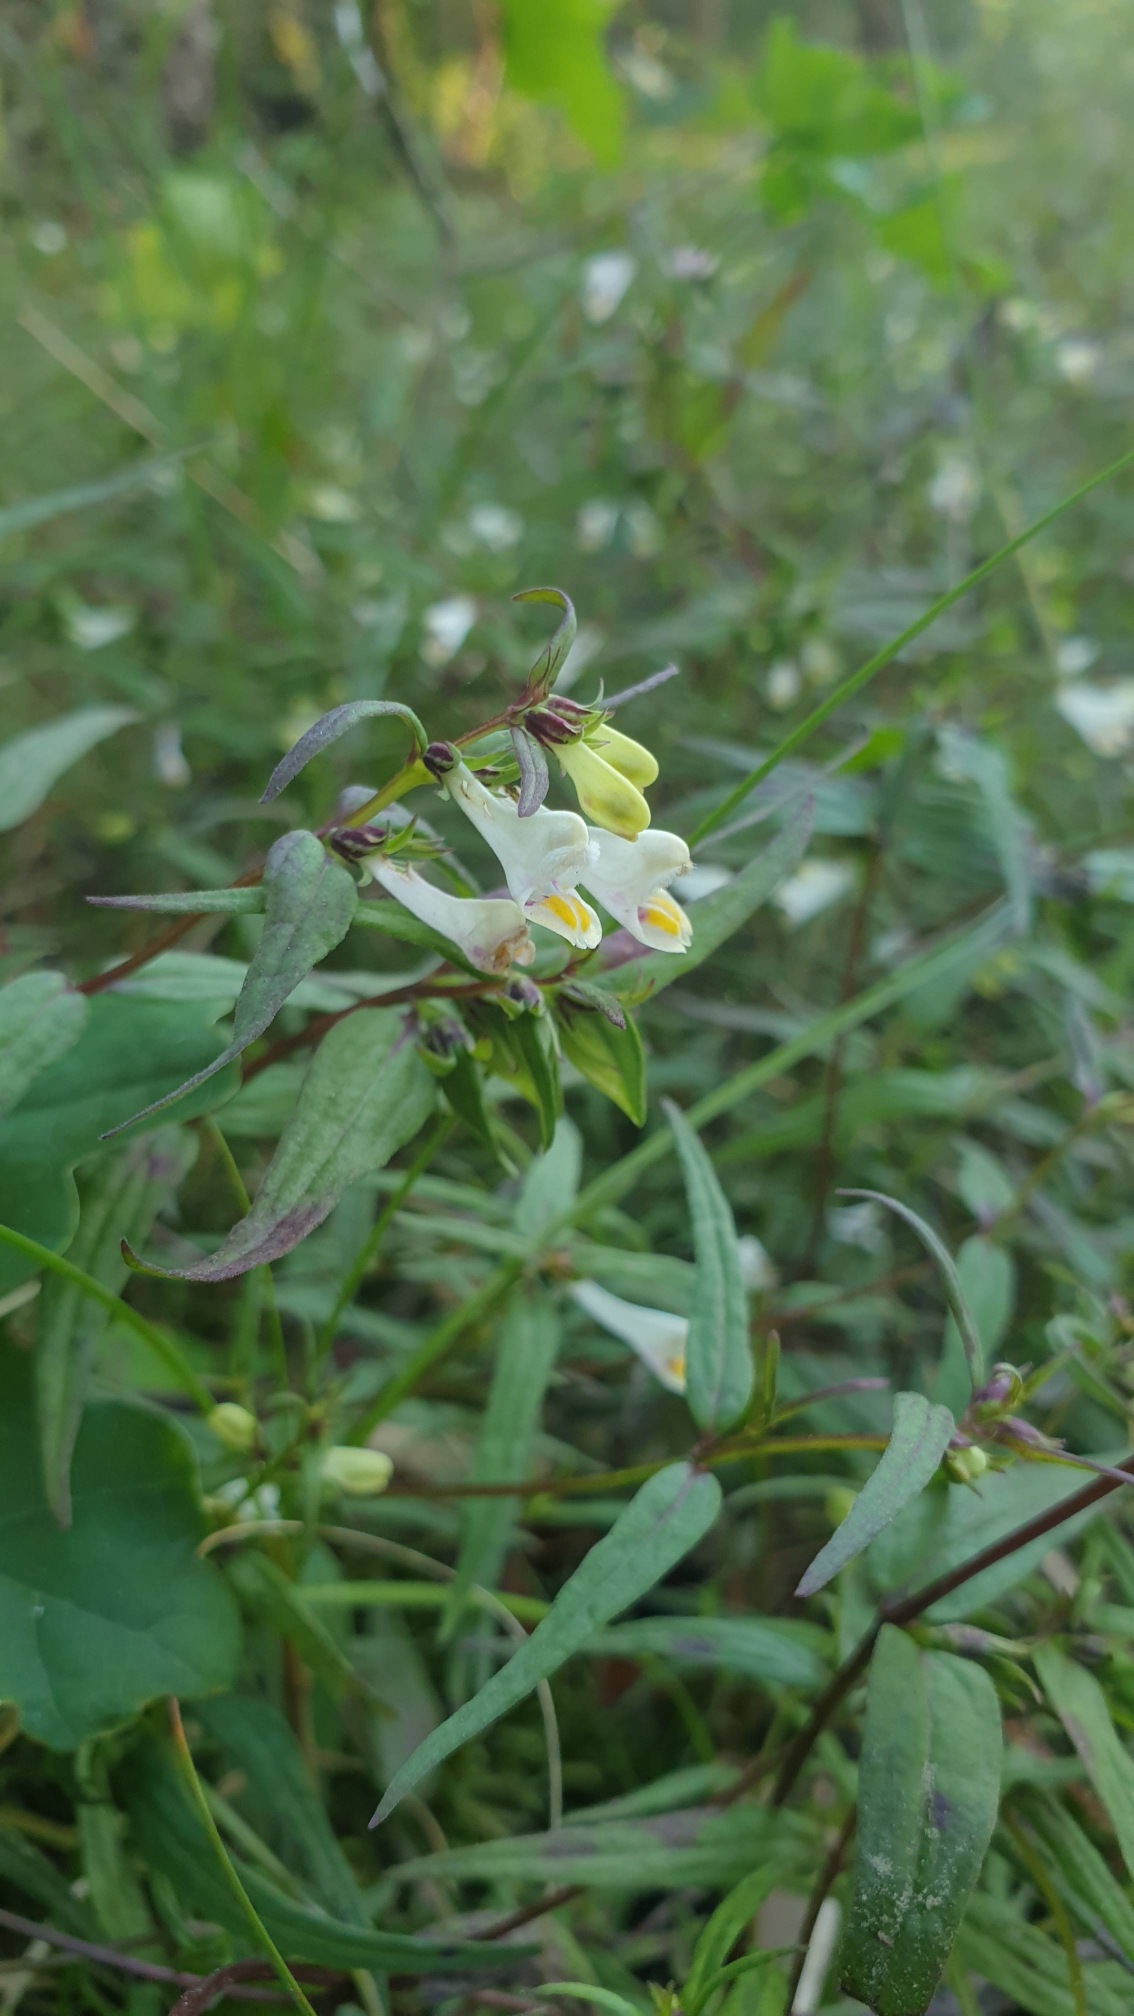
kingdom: Plantae
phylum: Tracheophyta
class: Magnoliopsida
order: Lamiales
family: Orobanchaceae
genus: Melampyrum
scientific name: Melampyrum pratense
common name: Almindelig kohvede
